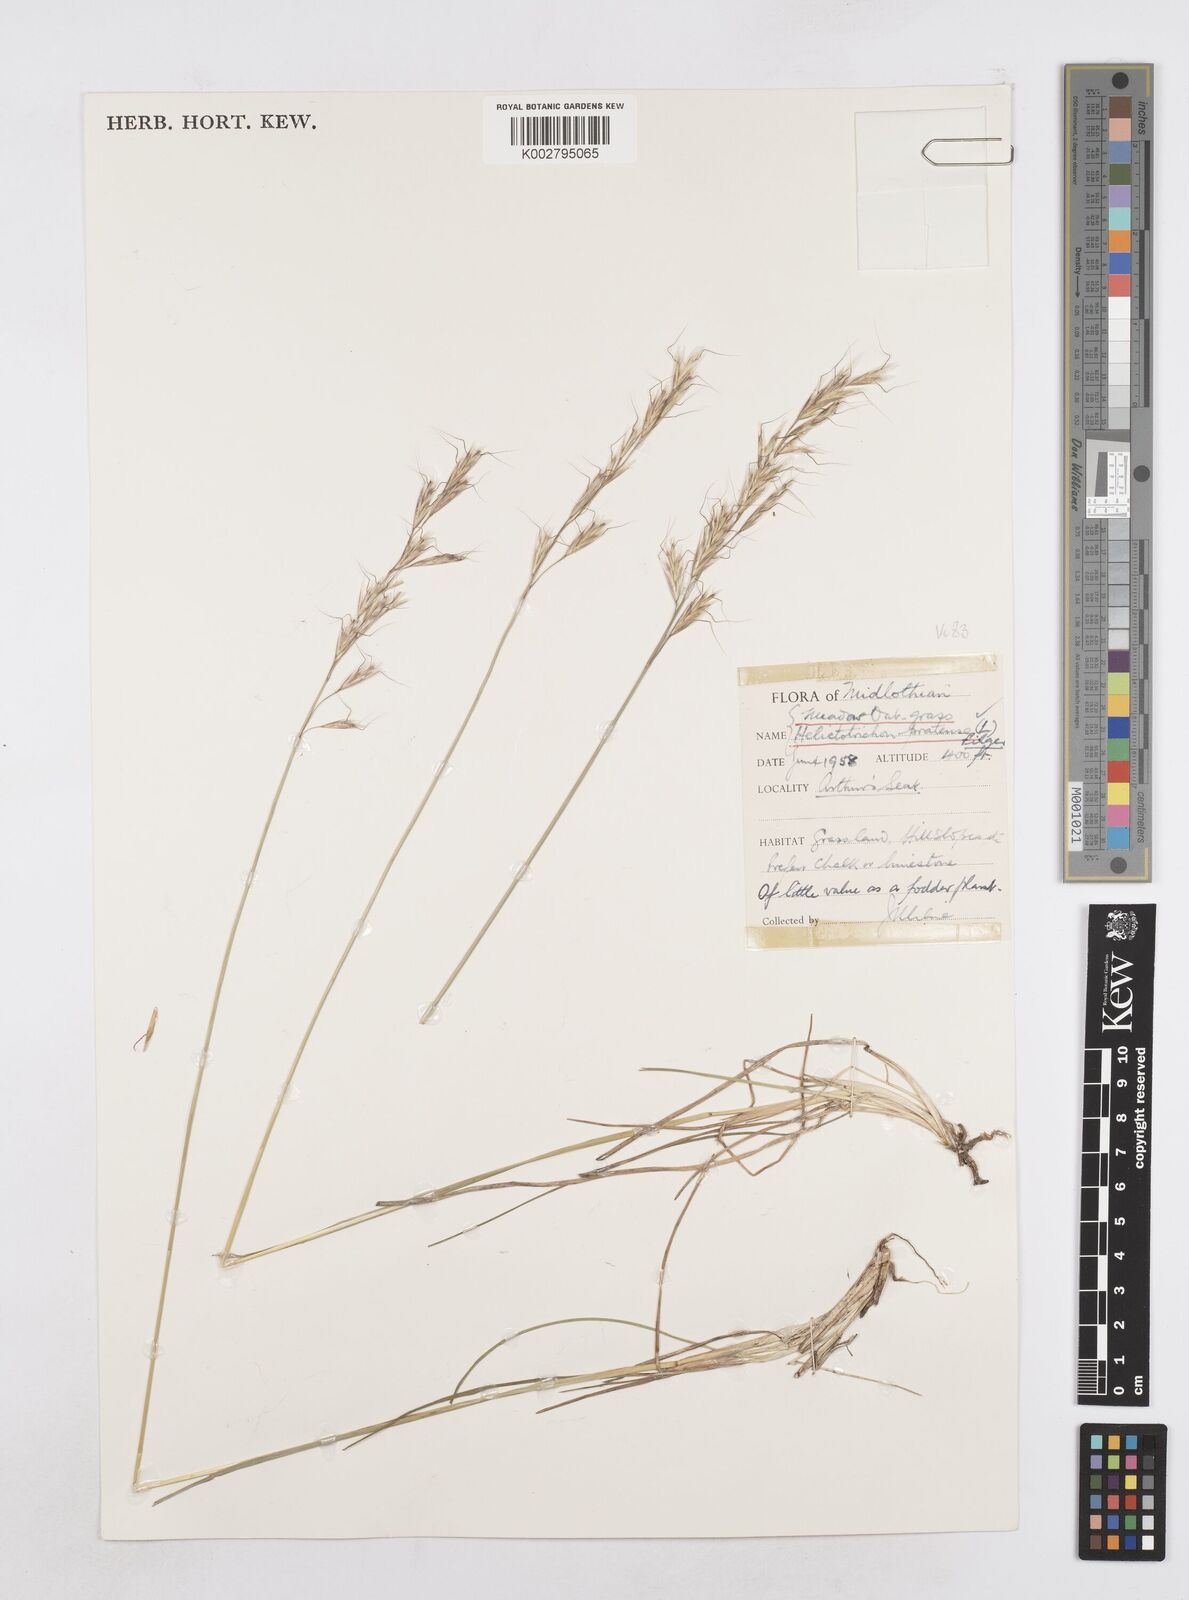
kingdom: Plantae
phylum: Tracheophyta
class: Liliopsida
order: Poales
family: Poaceae
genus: Helictotrichon
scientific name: Helictotrichon
